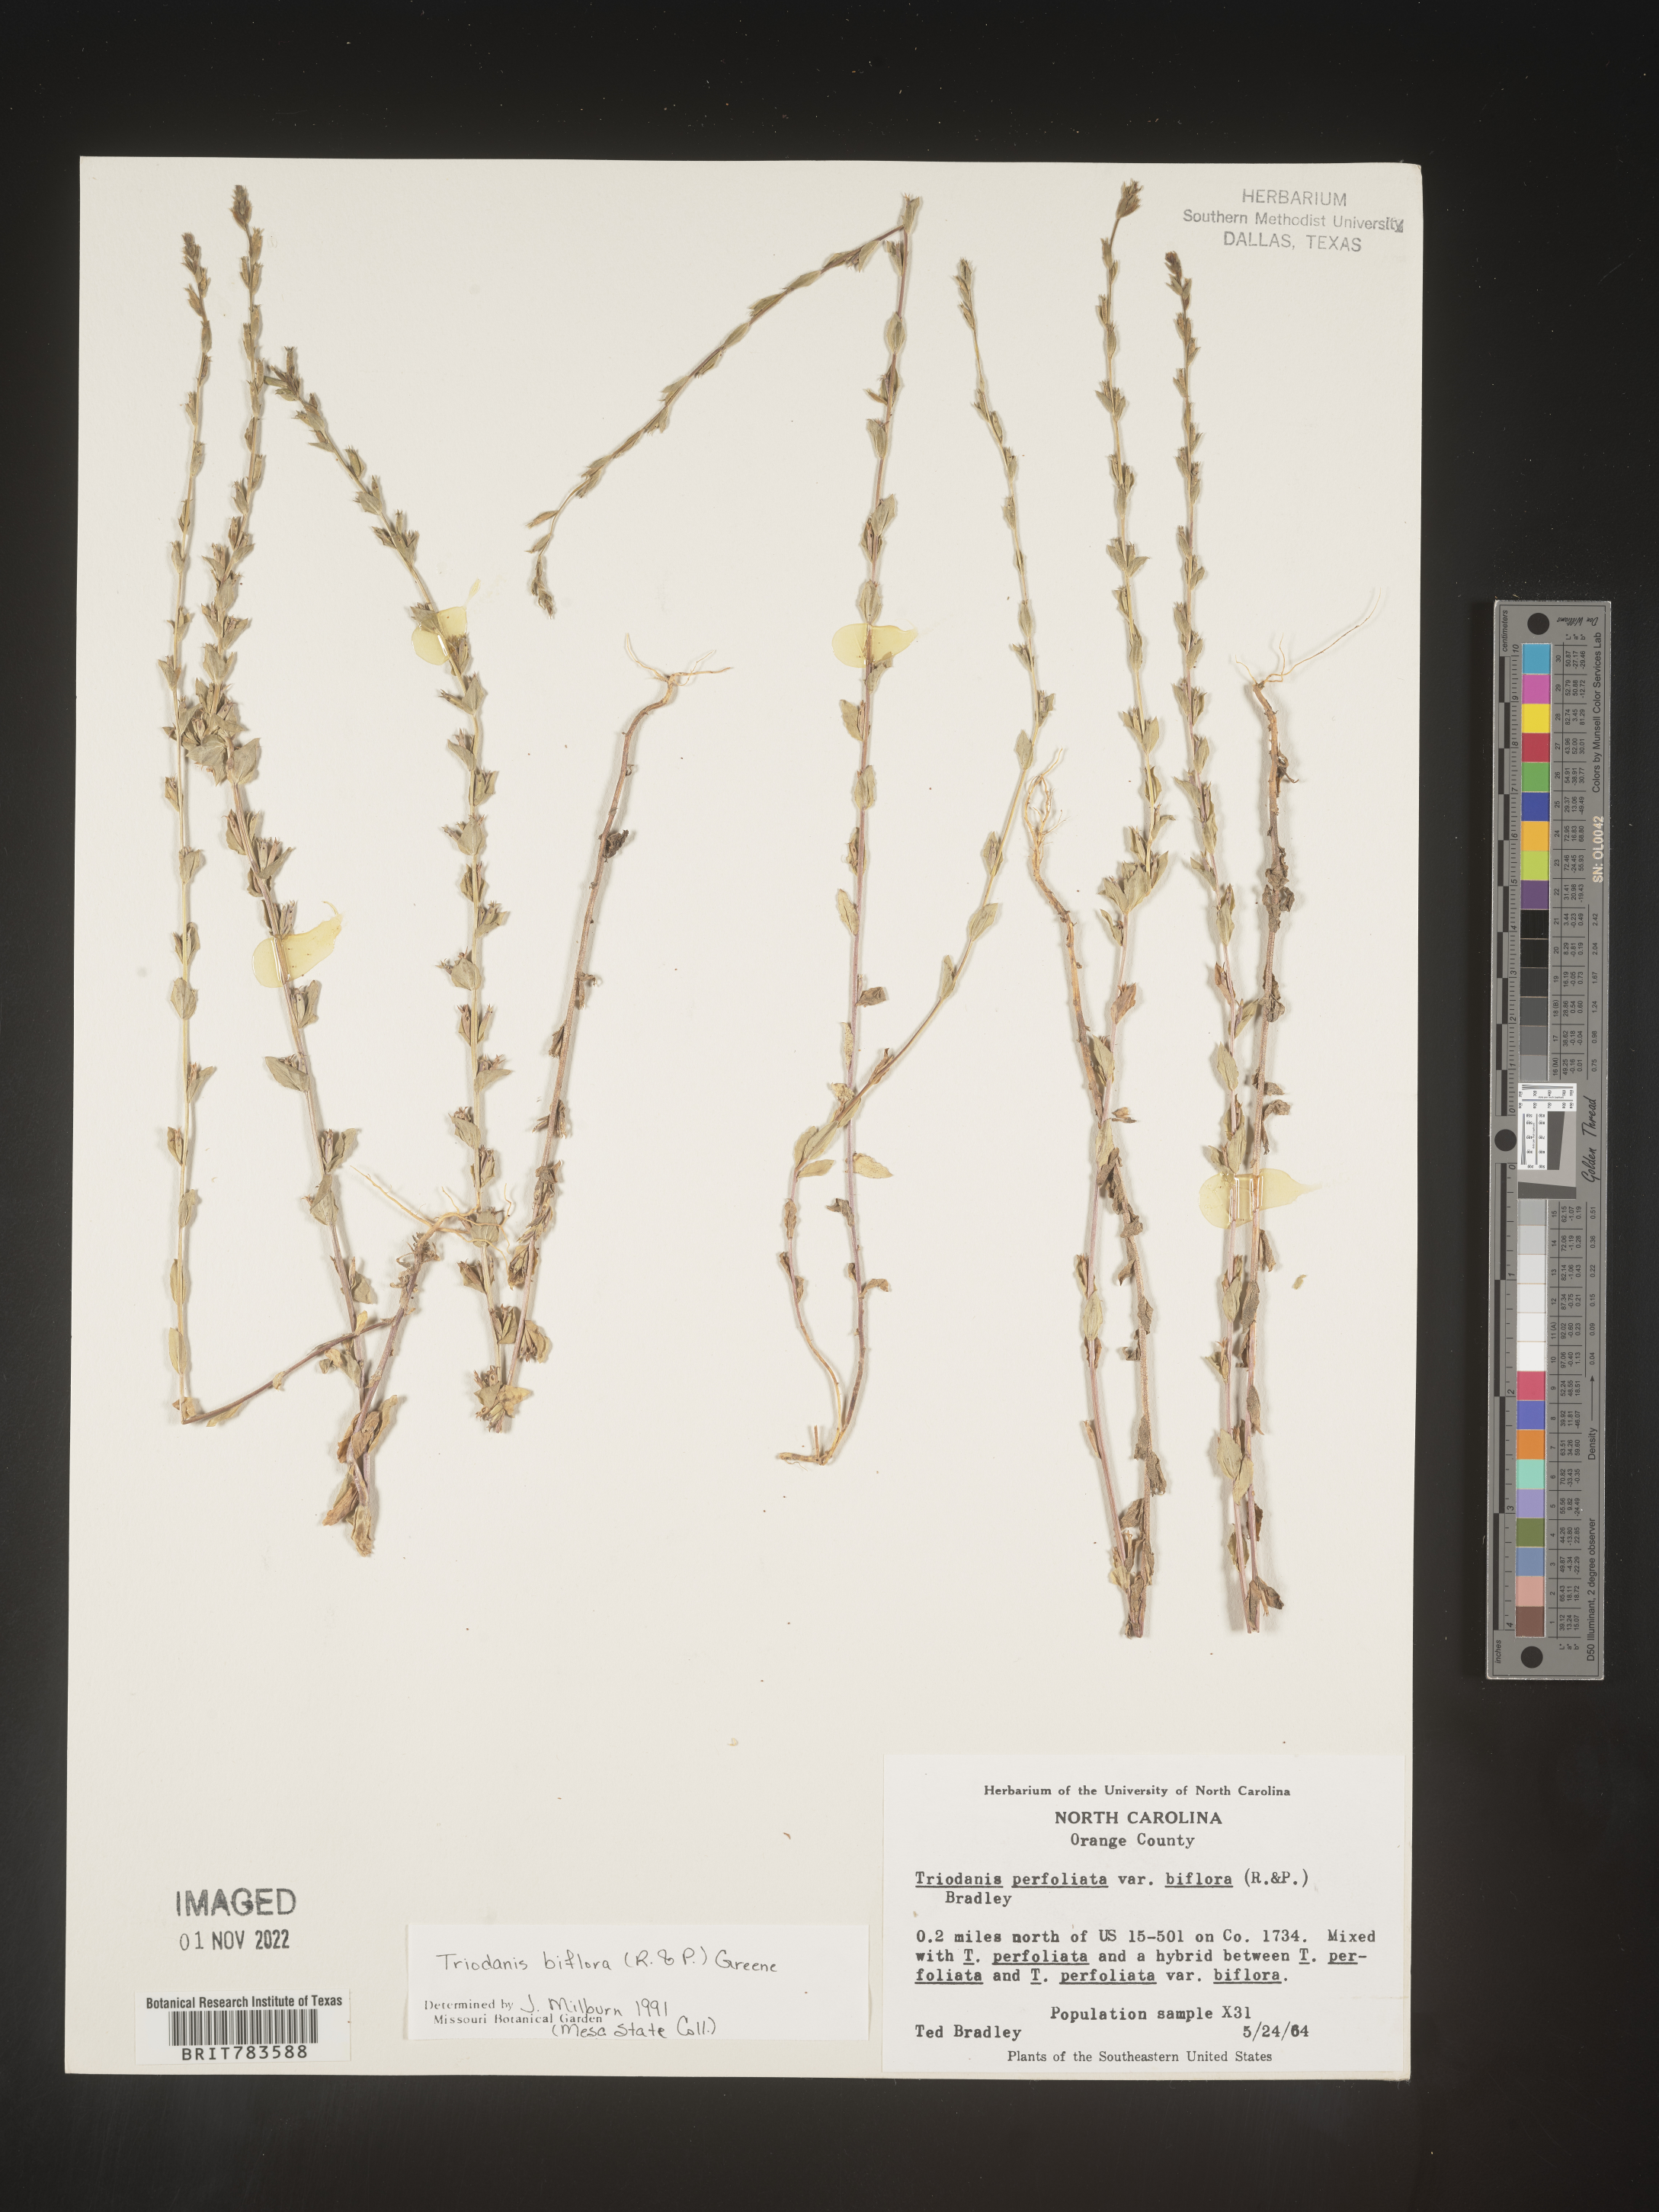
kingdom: Plantae
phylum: Tracheophyta
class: Magnoliopsida
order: Asterales
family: Campanulaceae
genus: Triodanis
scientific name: Triodanis perfoliata
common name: Clasping venus' looking-glass
